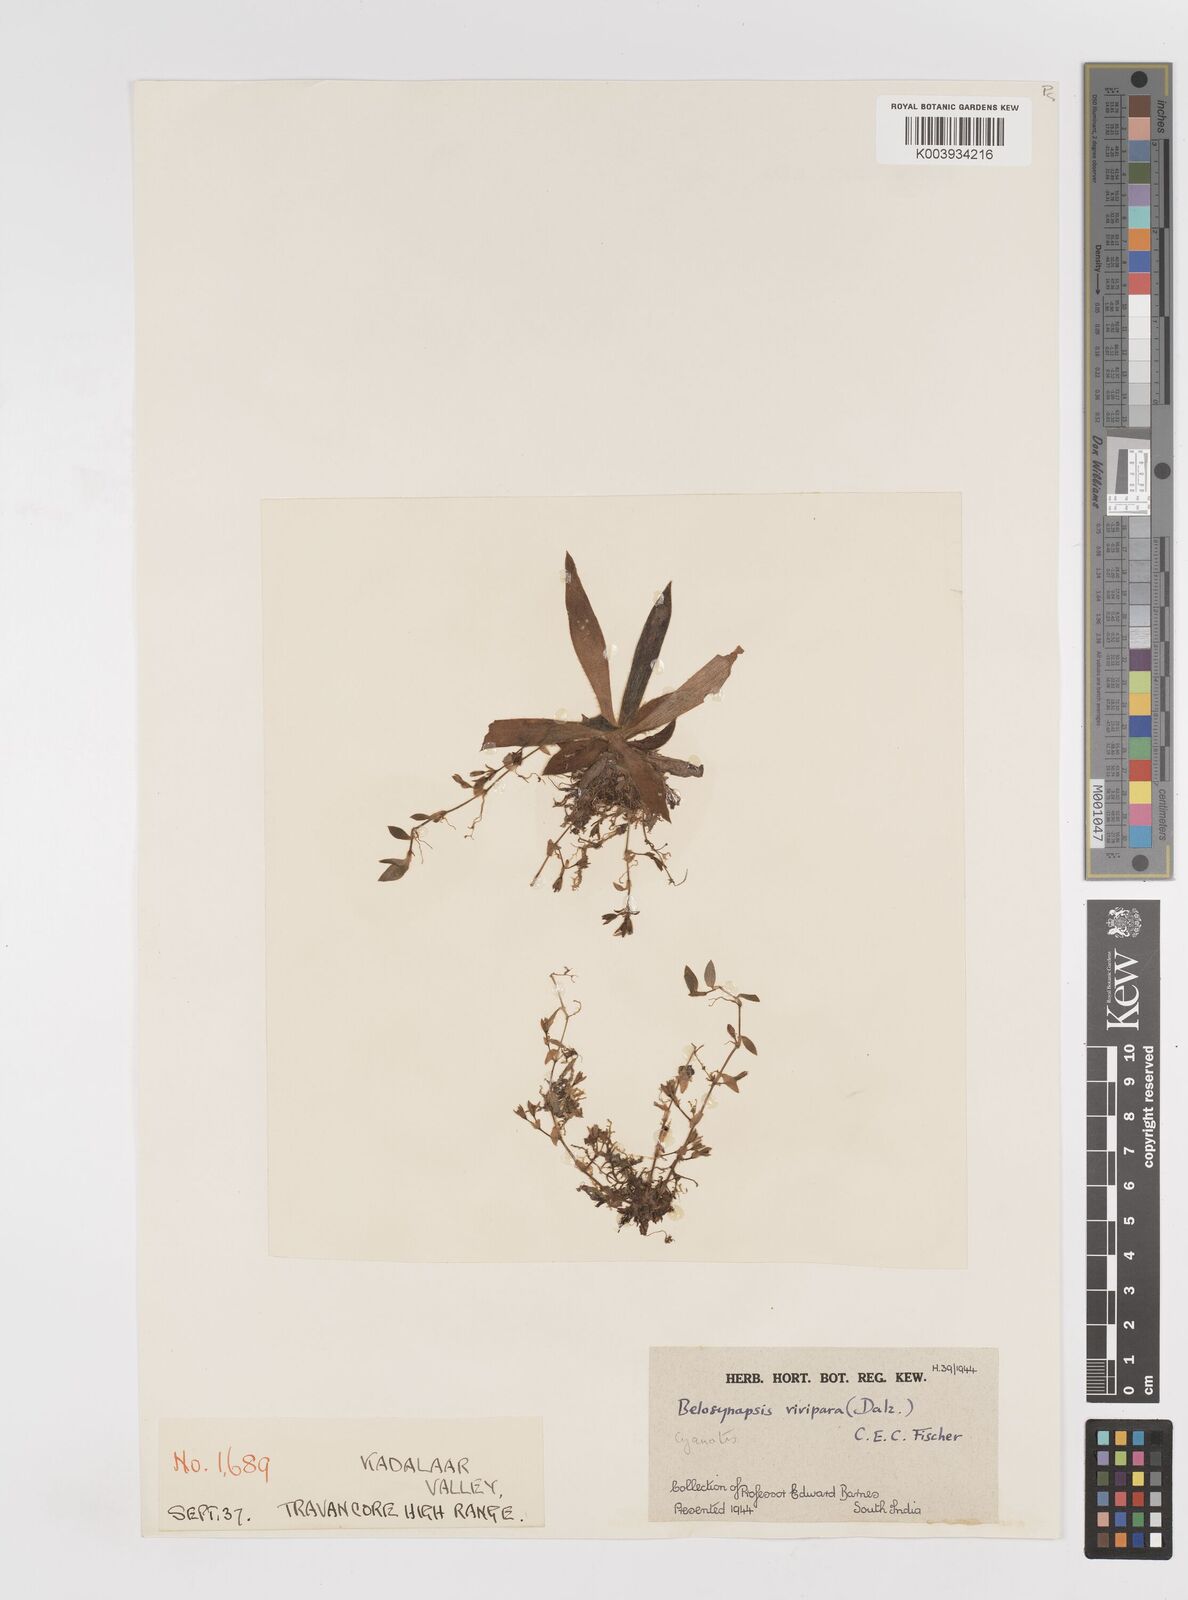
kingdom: Plantae
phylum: Tracheophyta
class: Liliopsida
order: Commelinales
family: Commelinaceae
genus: Cyanotis
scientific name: Cyanotis vivipara
